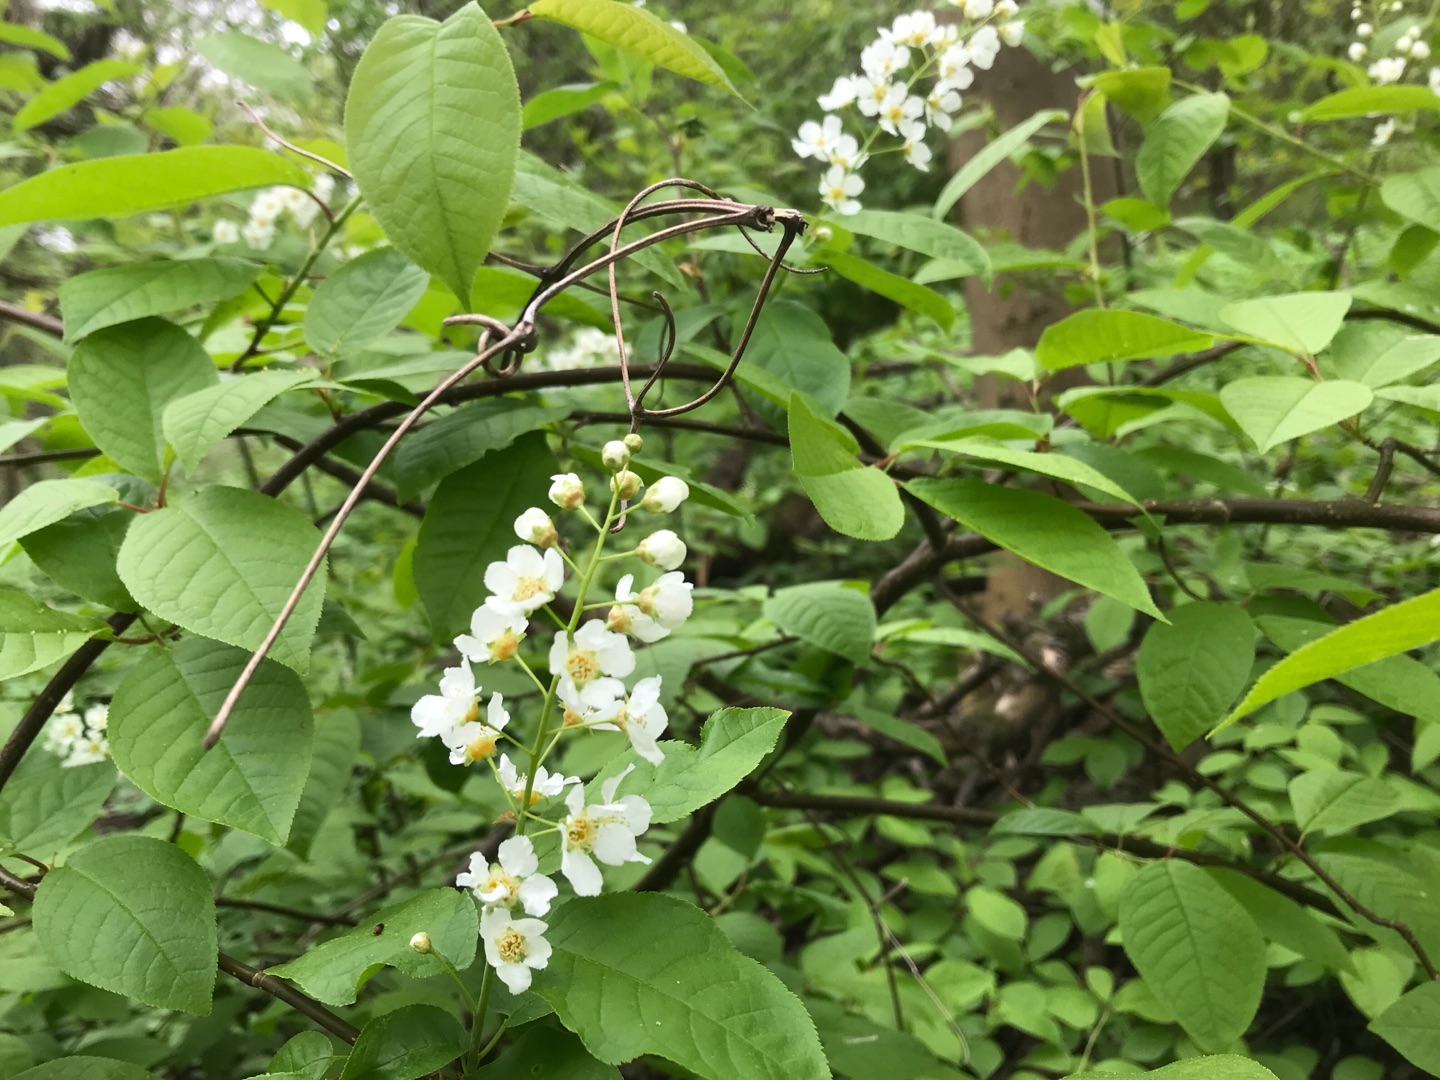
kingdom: Plantae
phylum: Tracheophyta
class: Magnoliopsida
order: Rosales
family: Rosaceae
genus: Prunus
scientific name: Prunus padus
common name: Almindelig hæg
